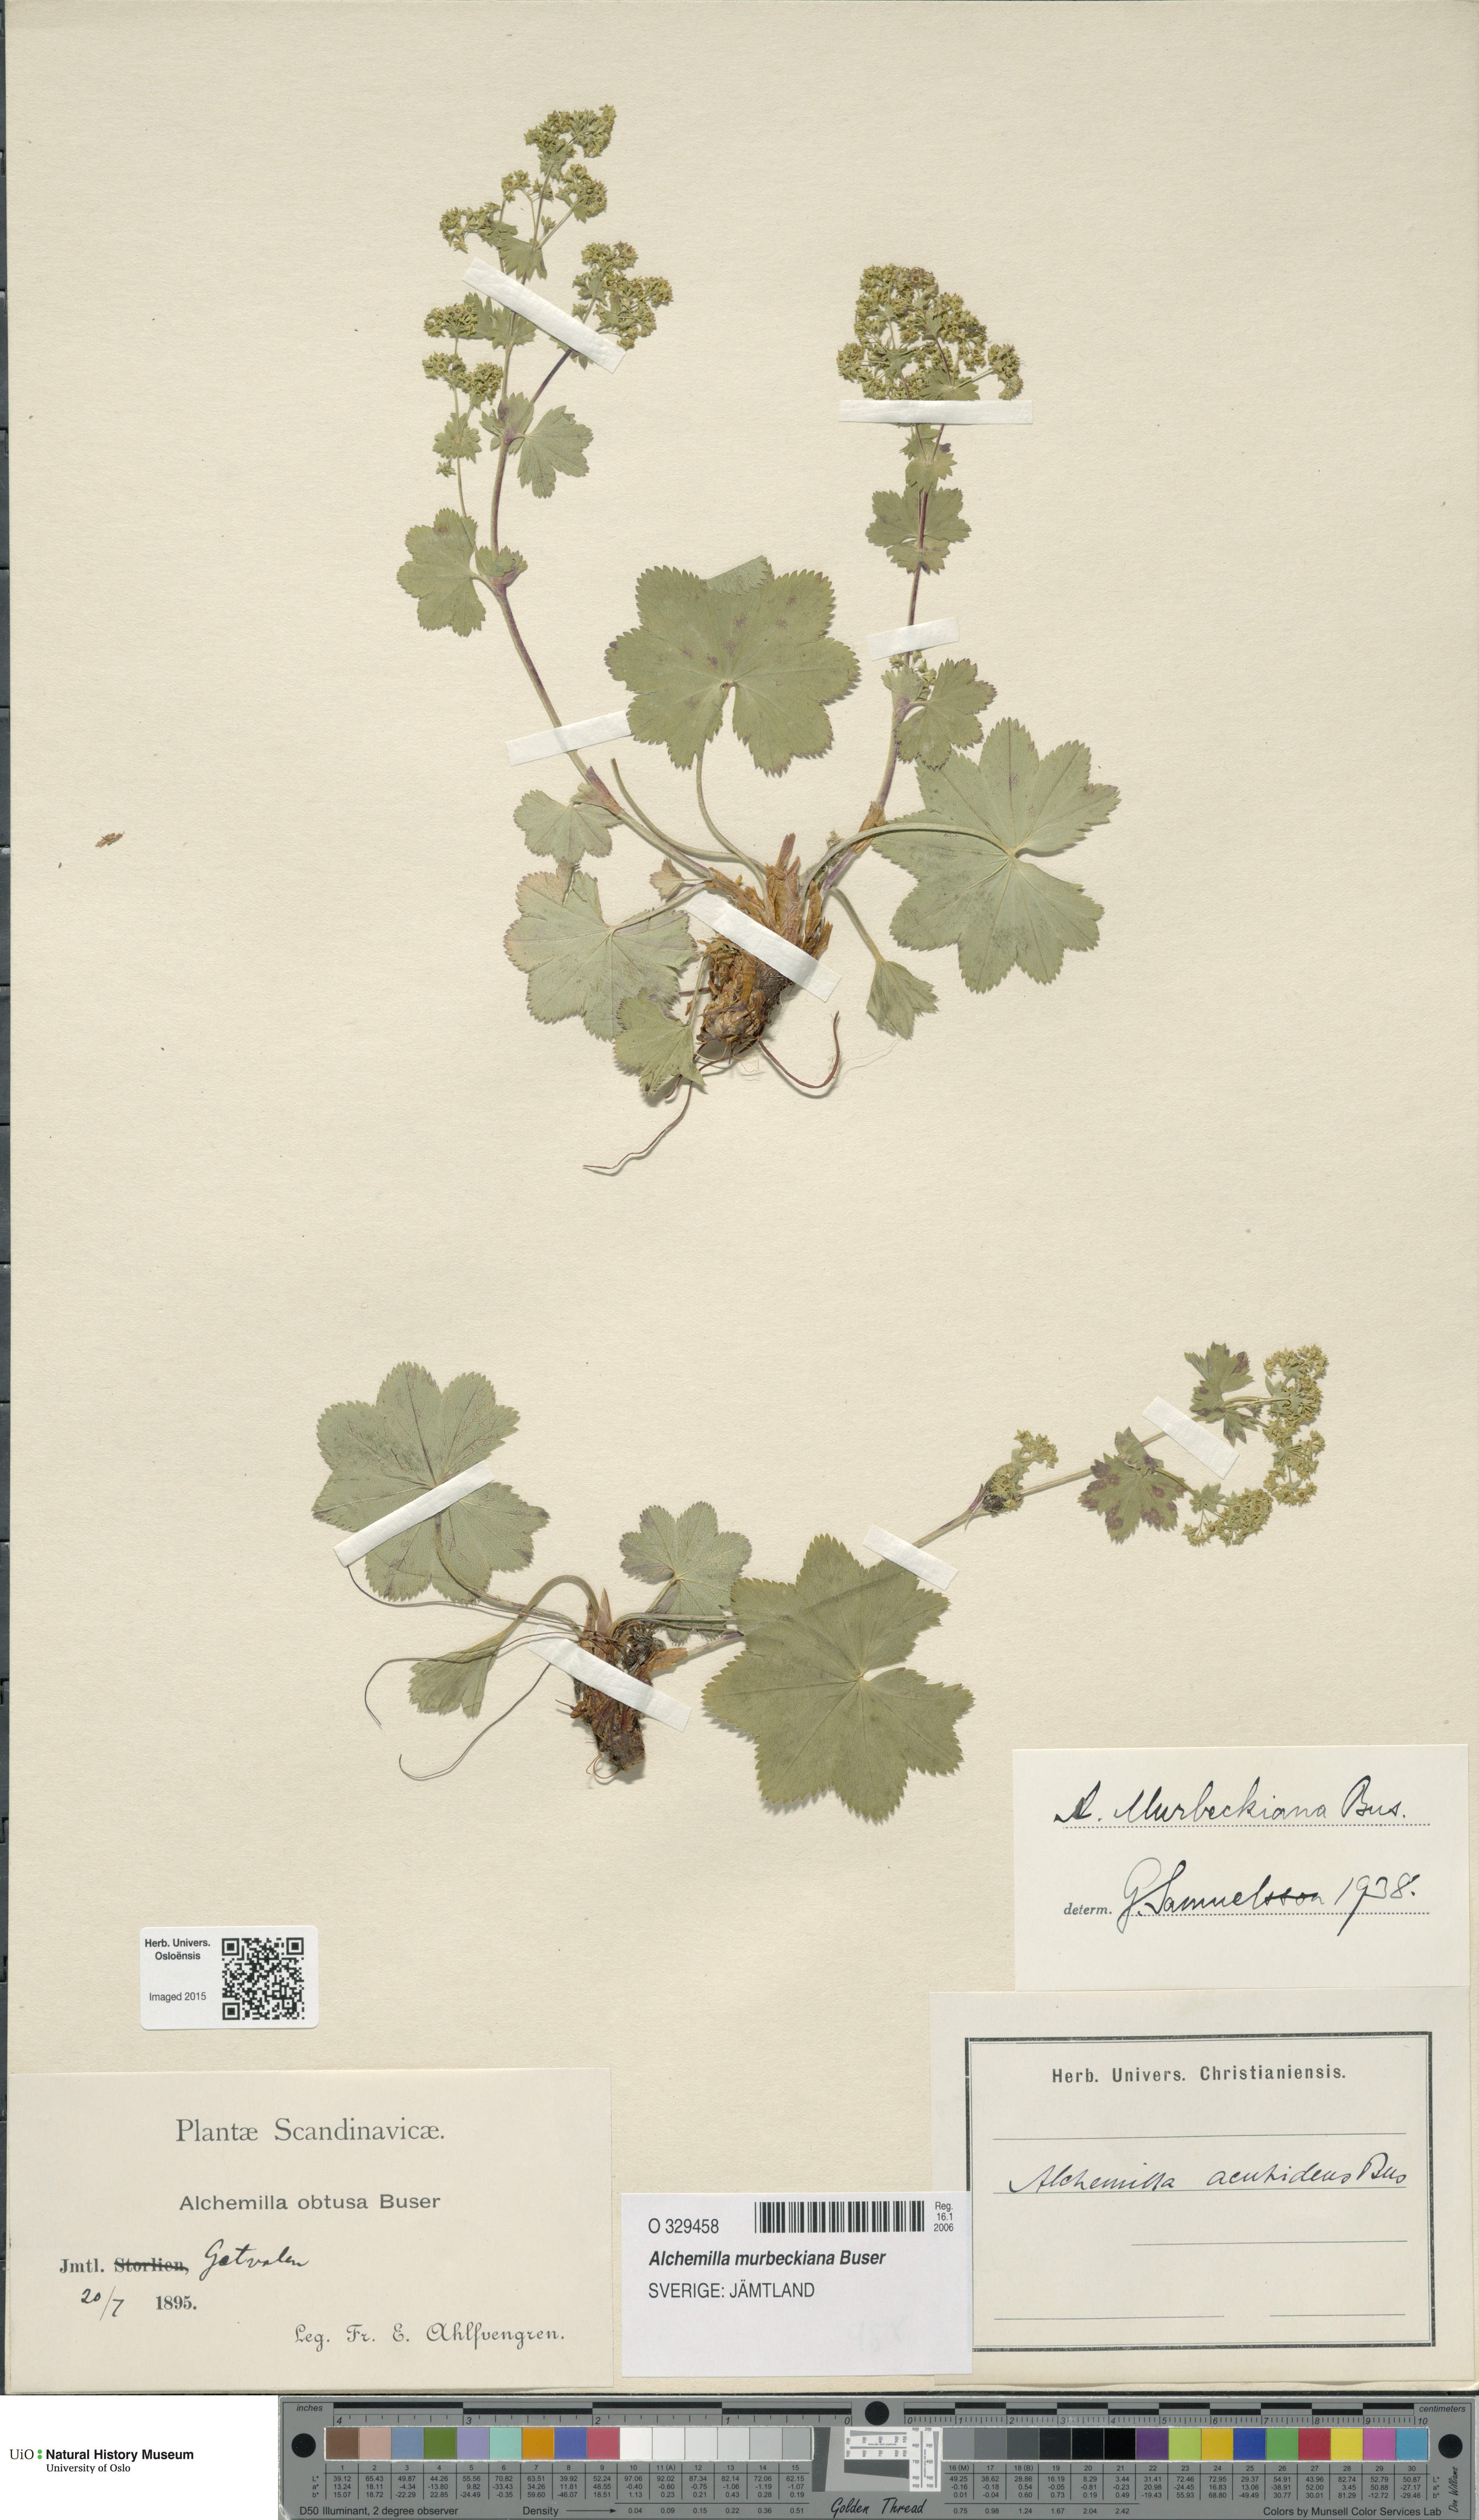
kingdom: Plantae
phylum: Tracheophyta
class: Magnoliopsida
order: Rosales
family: Rosaceae
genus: Alchemilla
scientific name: Alchemilla murbeckiana
